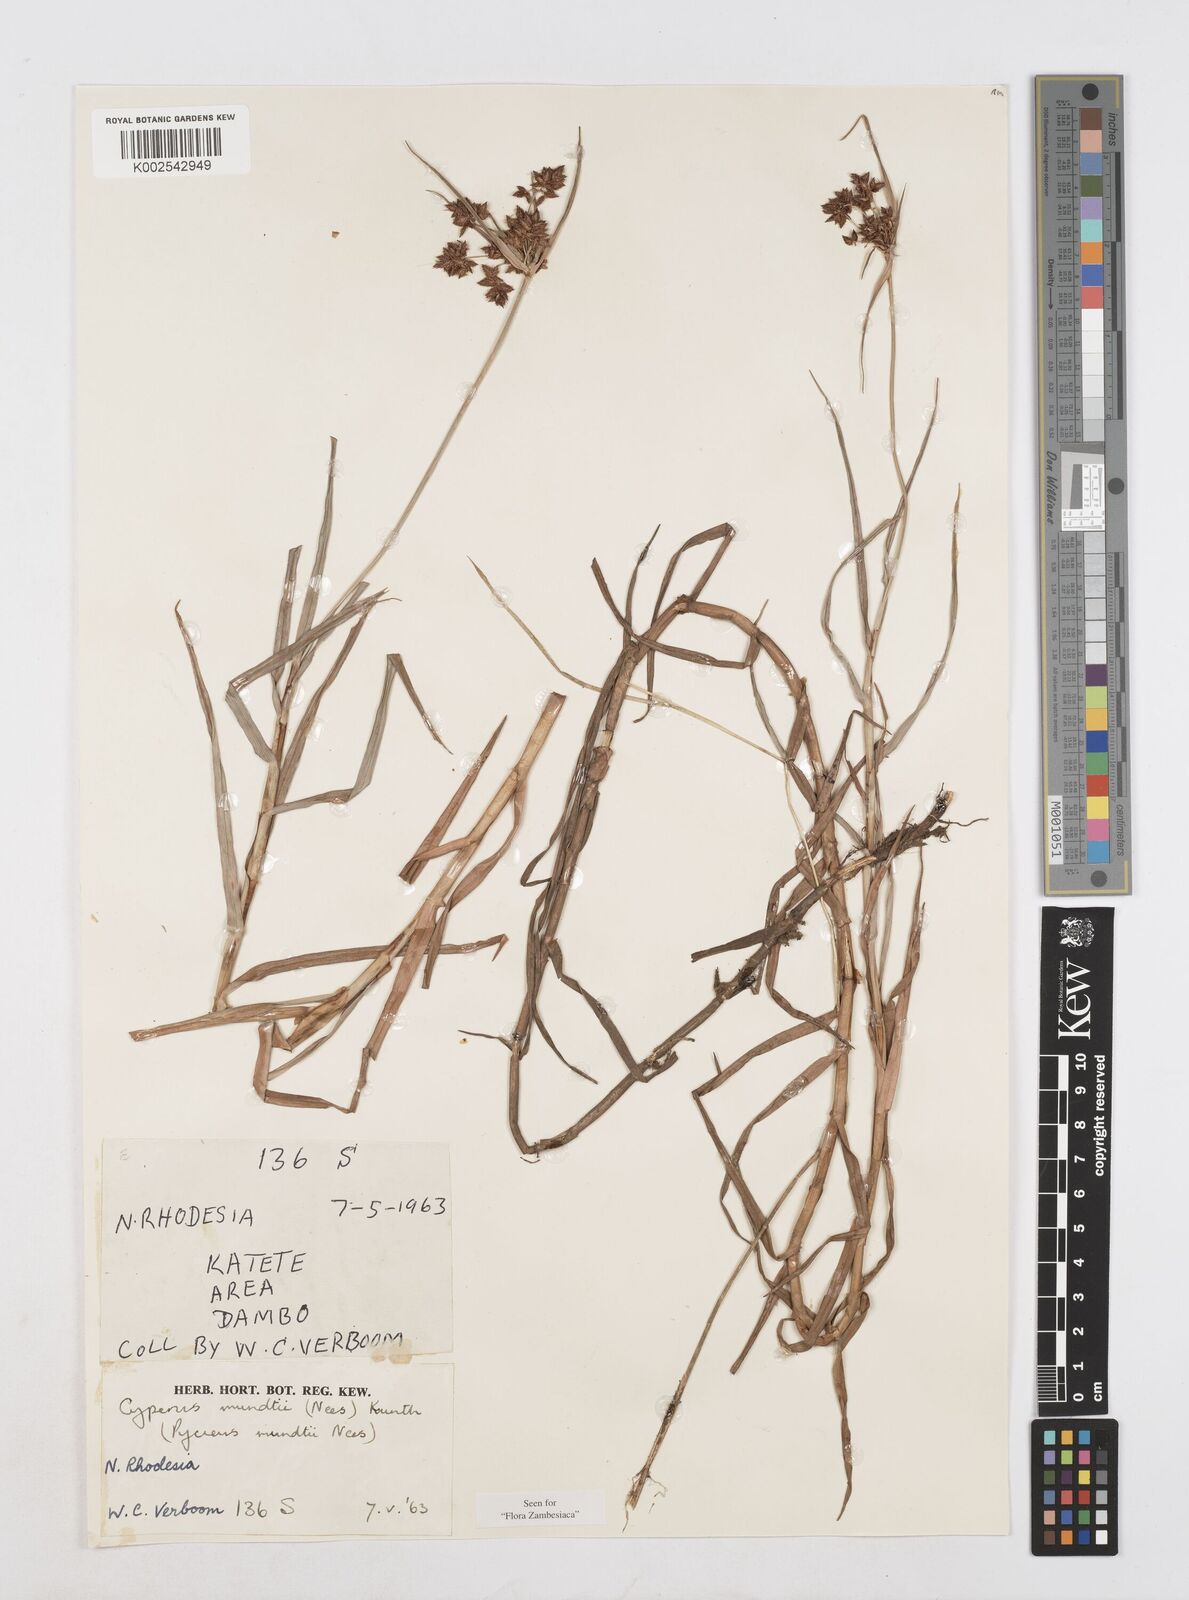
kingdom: Plantae
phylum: Tracheophyta
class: Liliopsida
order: Poales
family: Cyperaceae
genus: Cyperus
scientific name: Cyperus mundii
